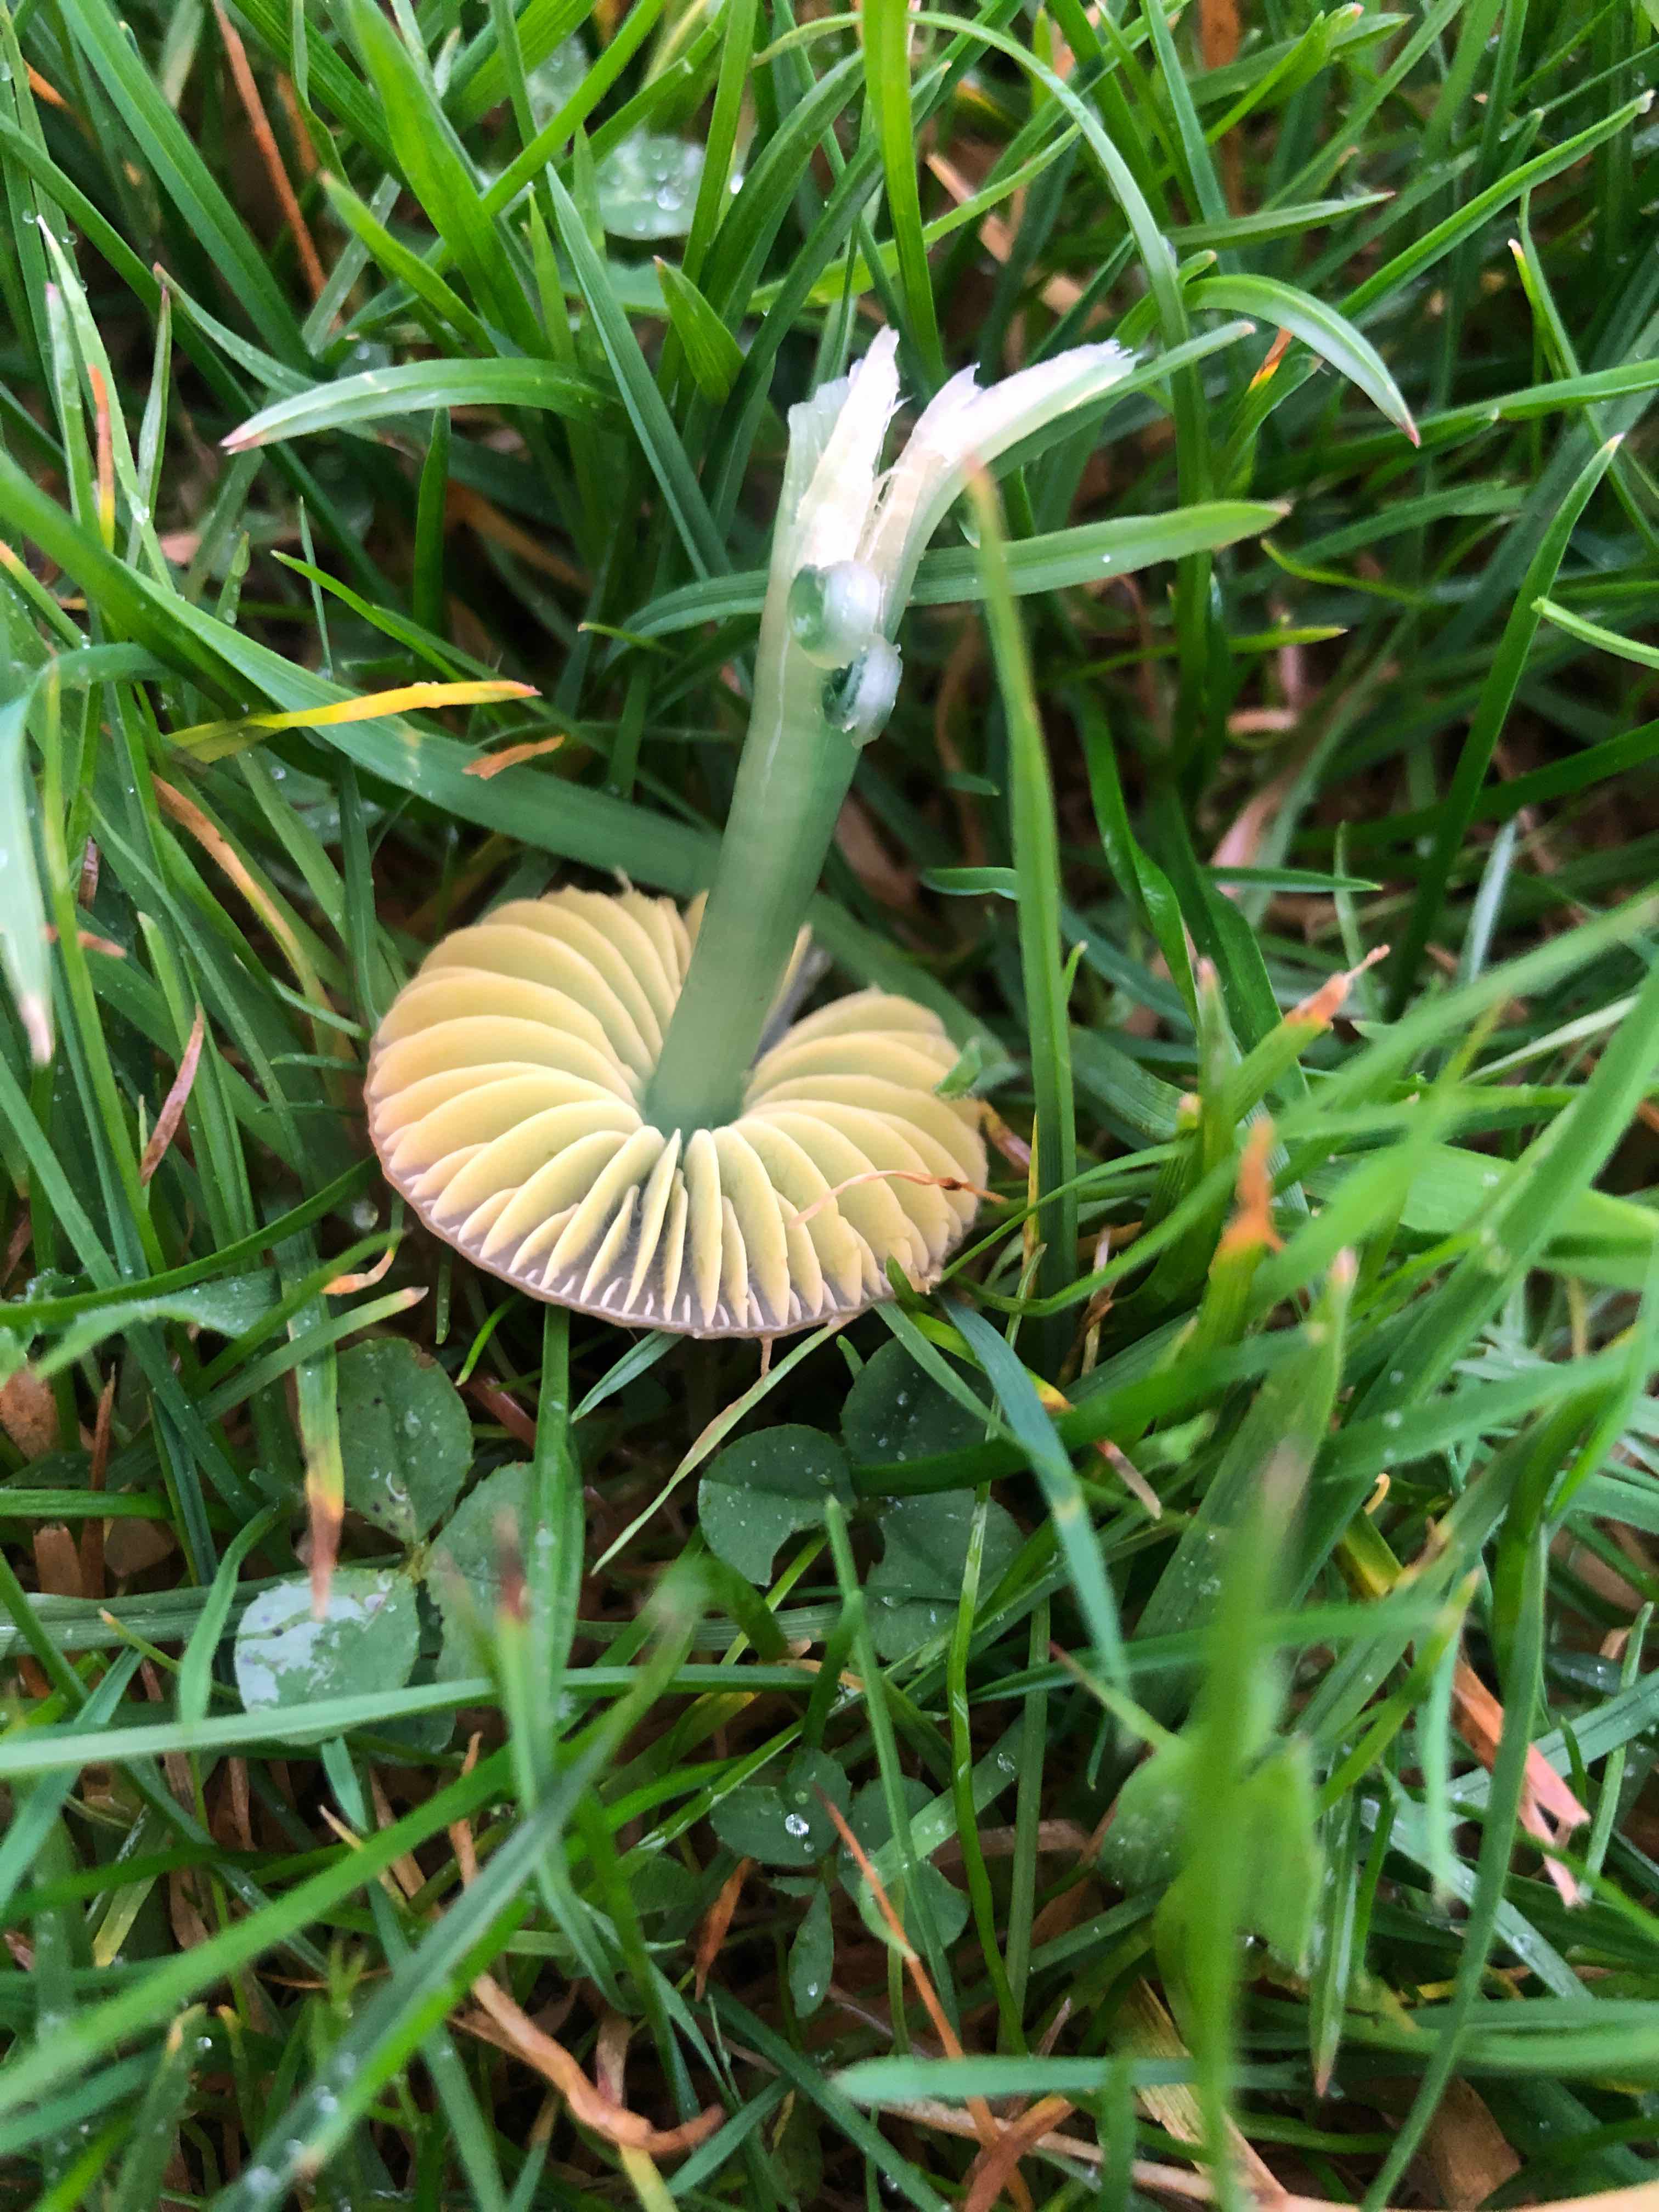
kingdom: Fungi
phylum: Basidiomycota
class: Agaricomycetes
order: Agaricales
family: Hygrophoraceae
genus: Gliophorus
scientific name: Gliophorus psittacinus
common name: papegøje-vokshat
